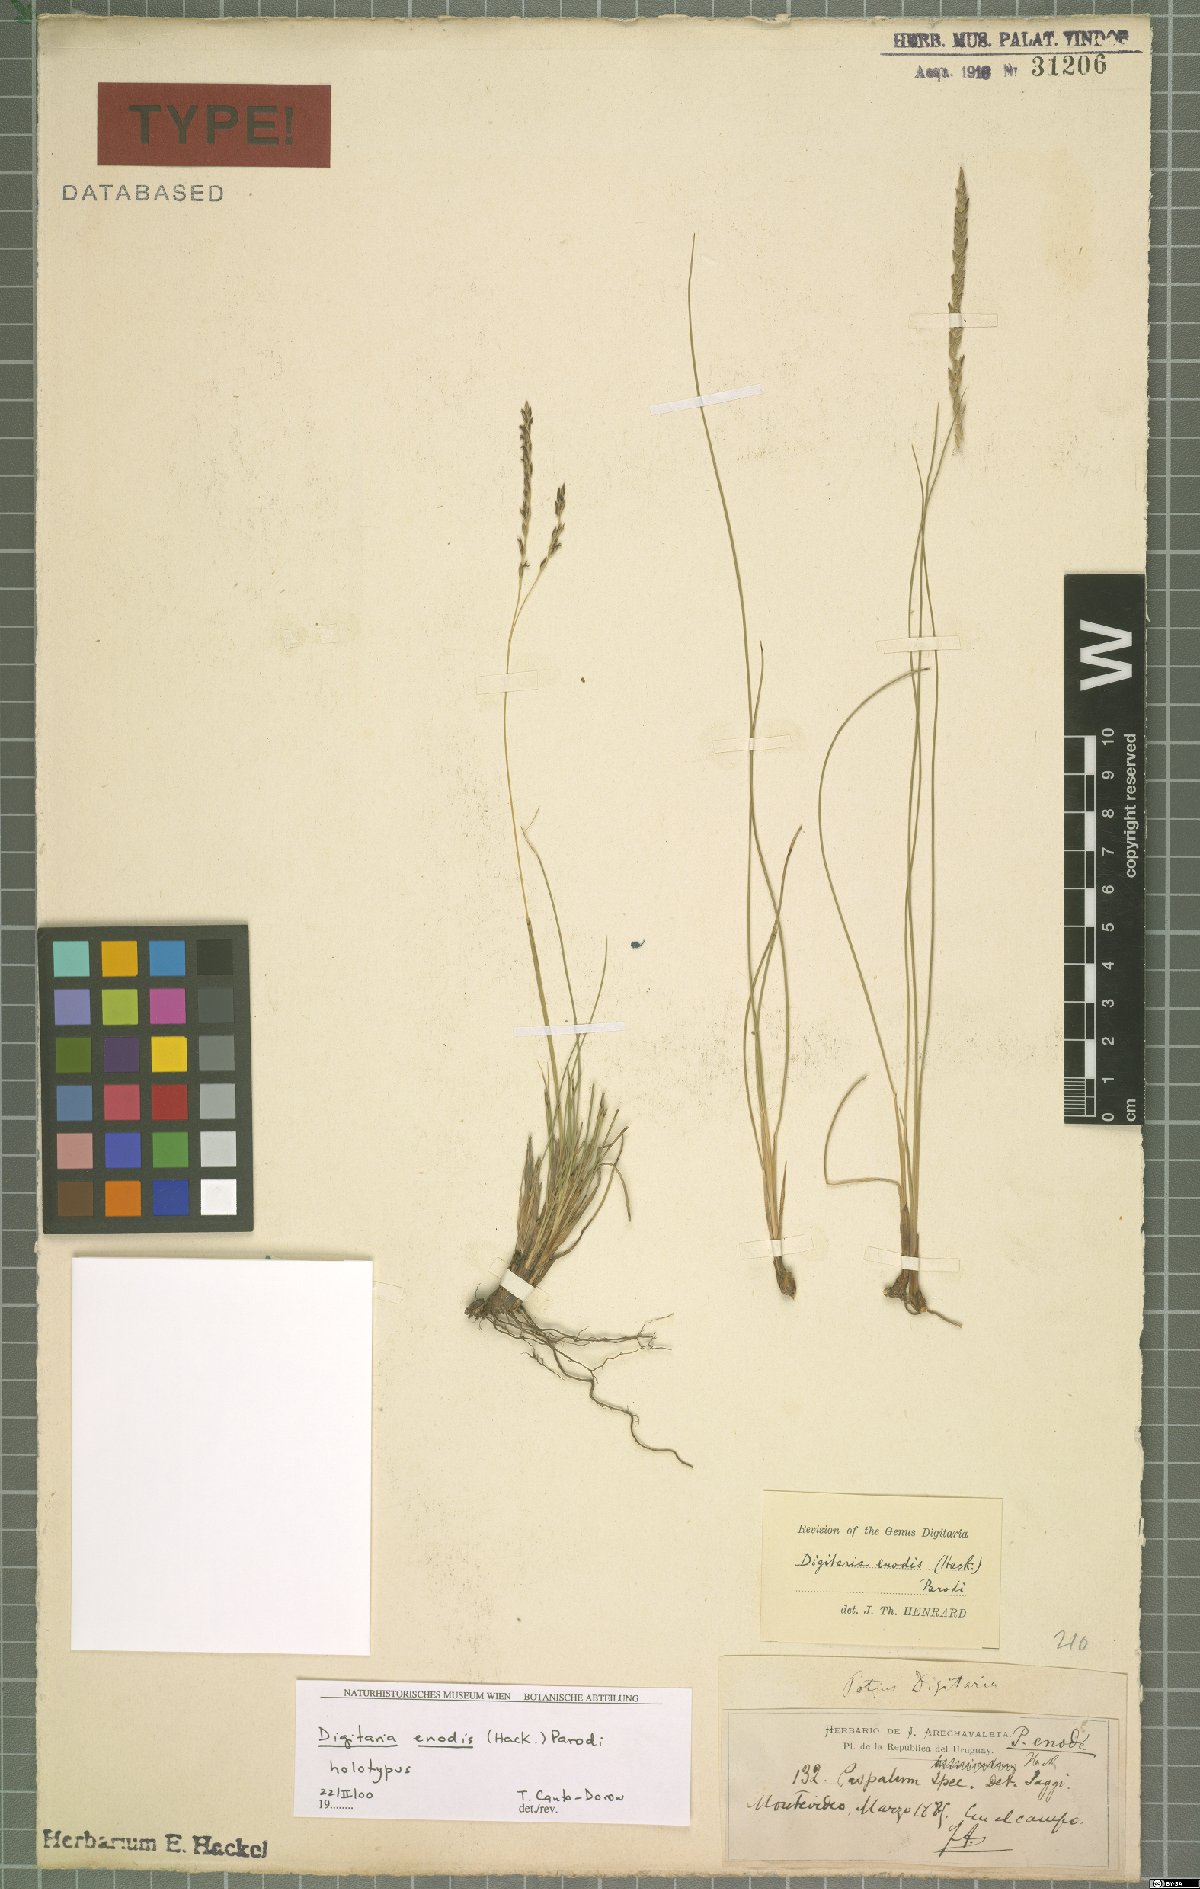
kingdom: Plantae
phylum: Tracheophyta
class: Liliopsida
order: Poales
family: Poaceae
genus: Digitaria
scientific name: Digitaria enodis
